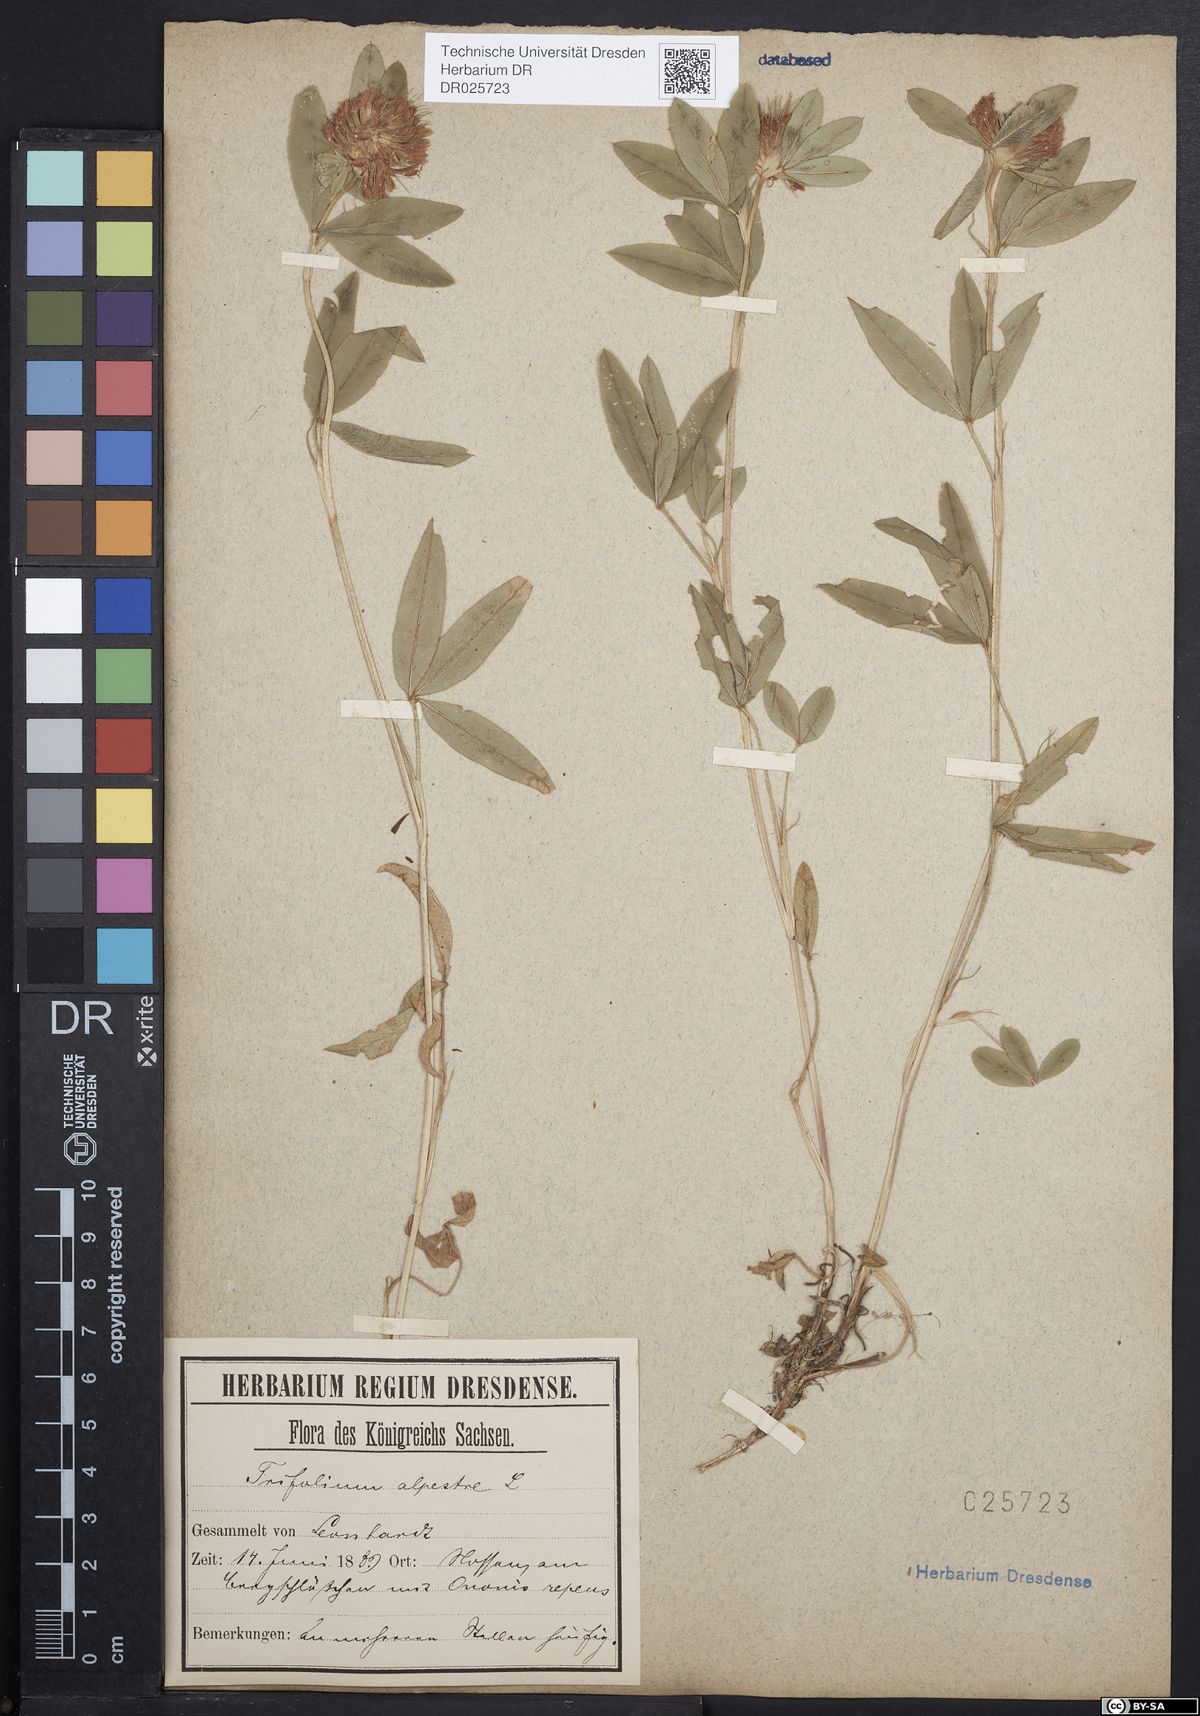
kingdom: Plantae
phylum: Tracheophyta
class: Magnoliopsida
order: Fabales
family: Fabaceae
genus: Trifolium
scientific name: Trifolium medium
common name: Zigzag clover
